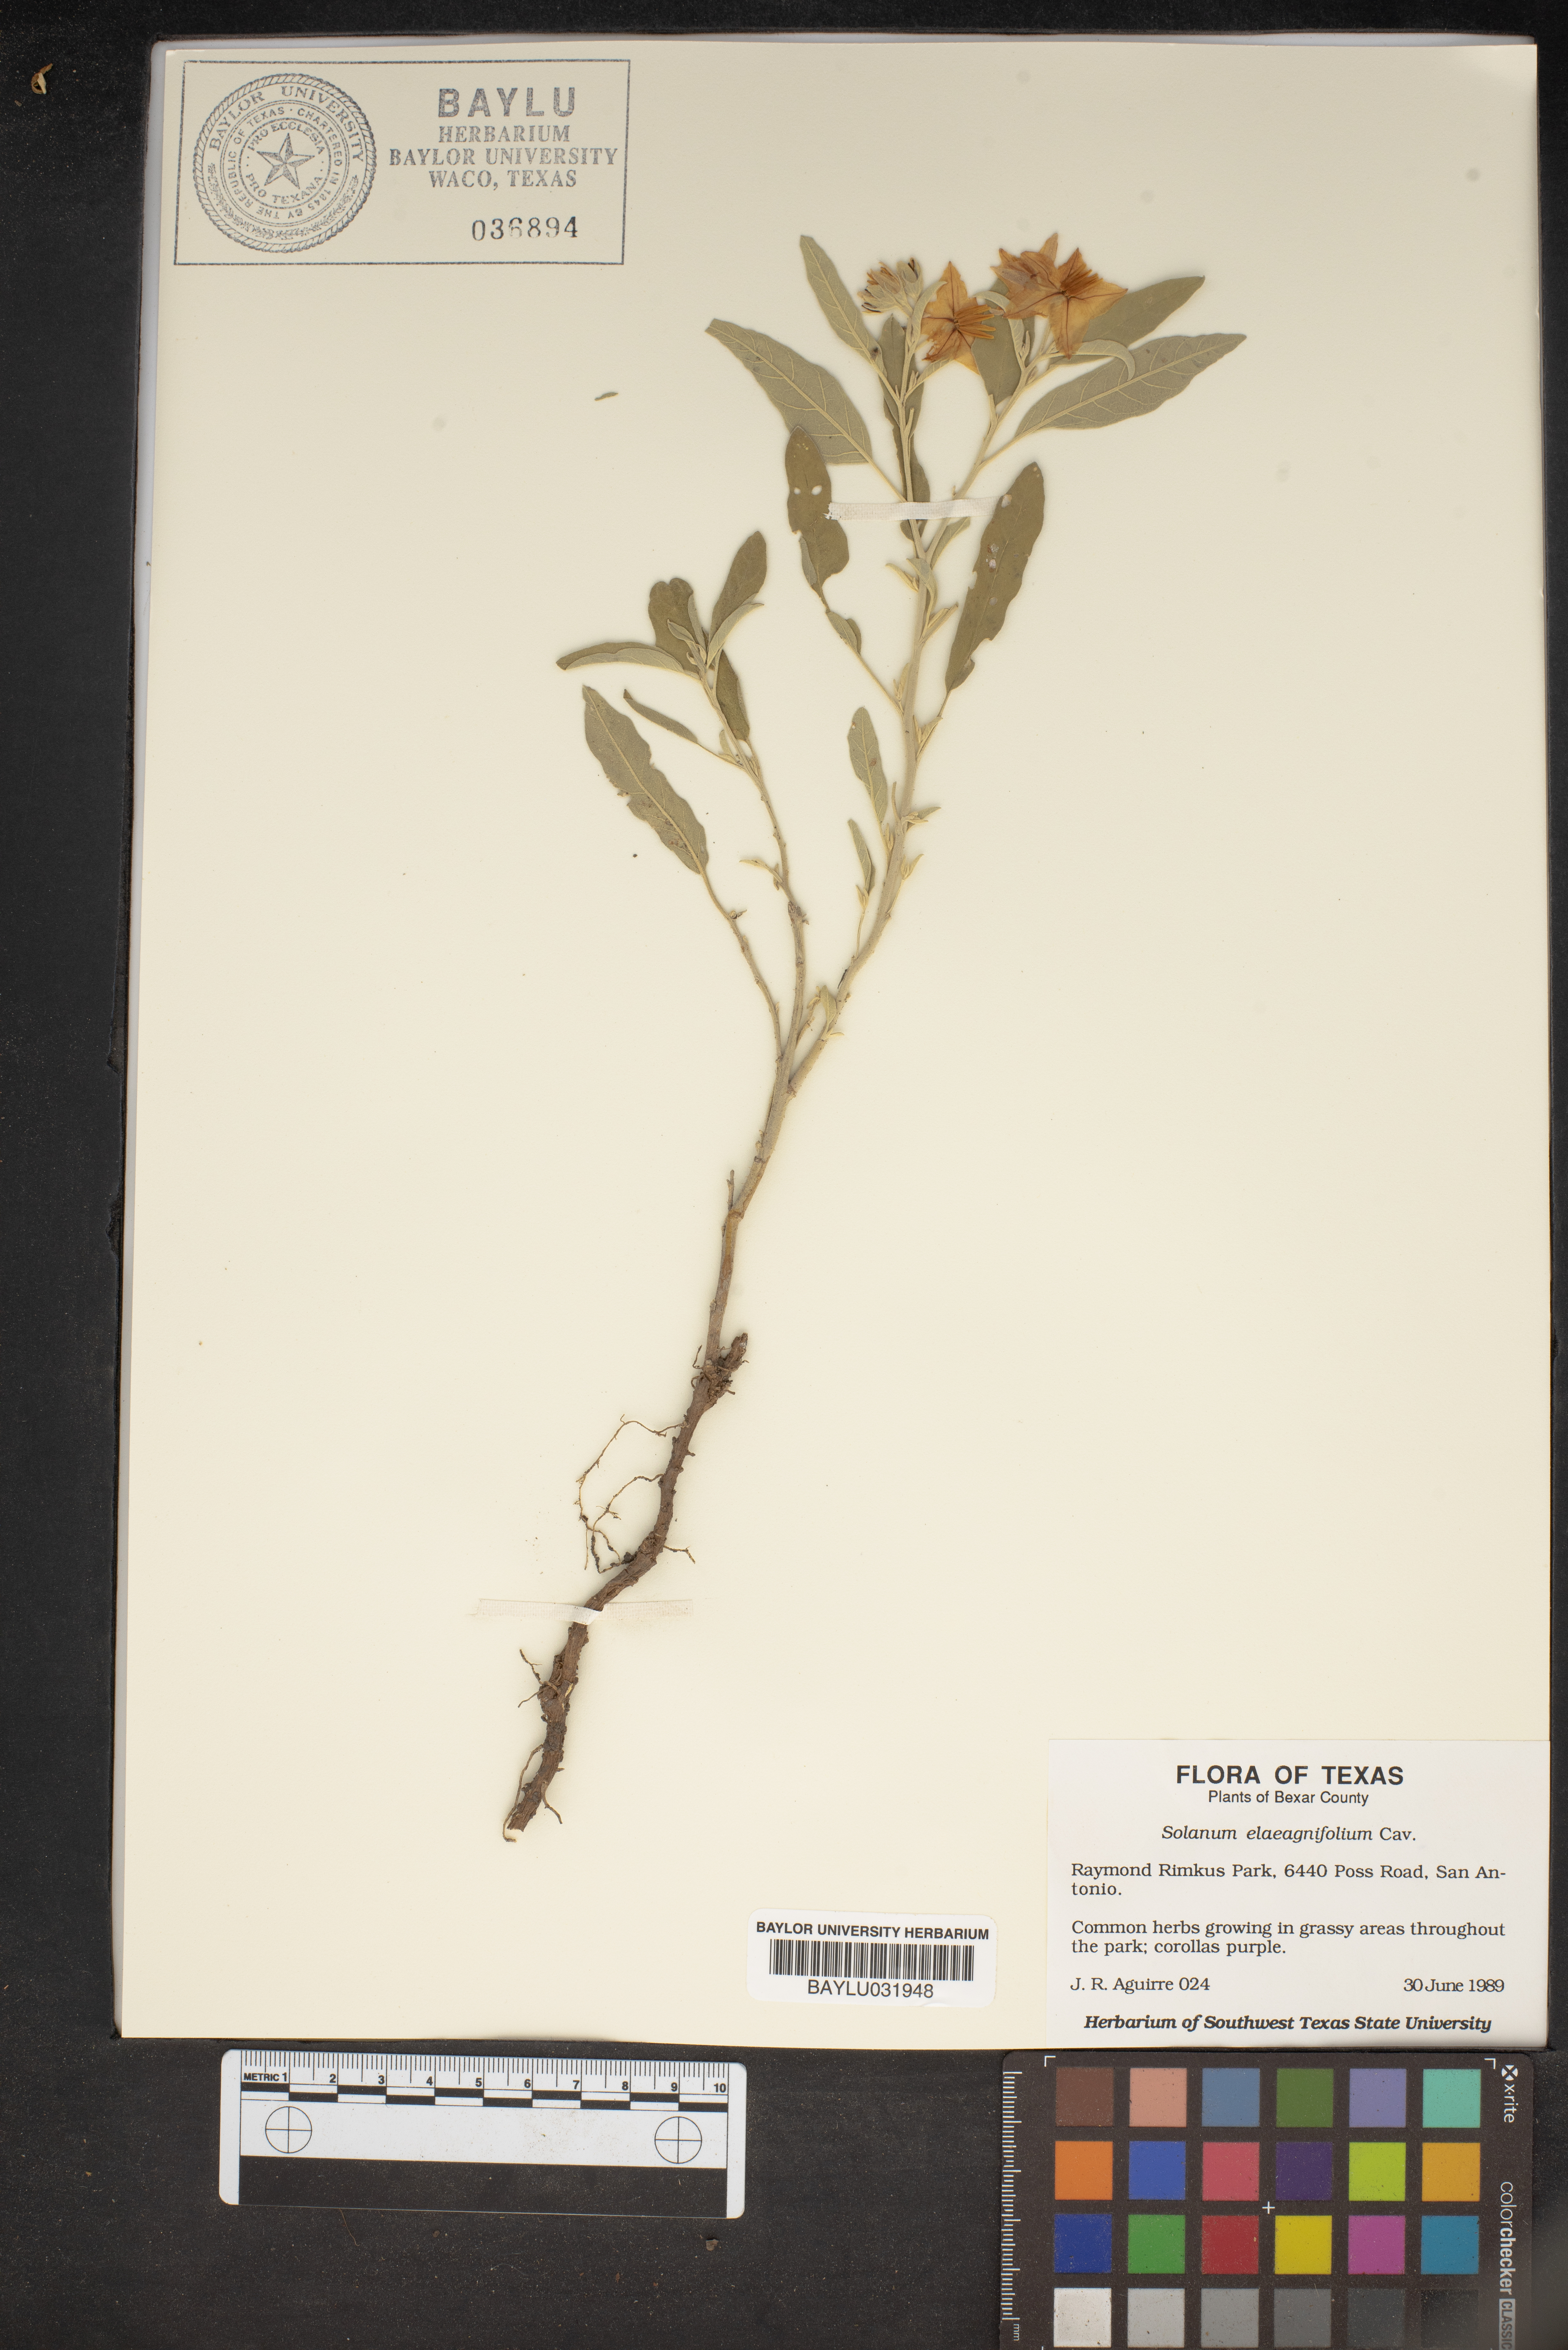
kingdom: Plantae
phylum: Tracheophyta
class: Magnoliopsida
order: Solanales
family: Solanaceae
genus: Solanum
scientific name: Solanum elaeagnifolium
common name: Silverleaf nightshade
